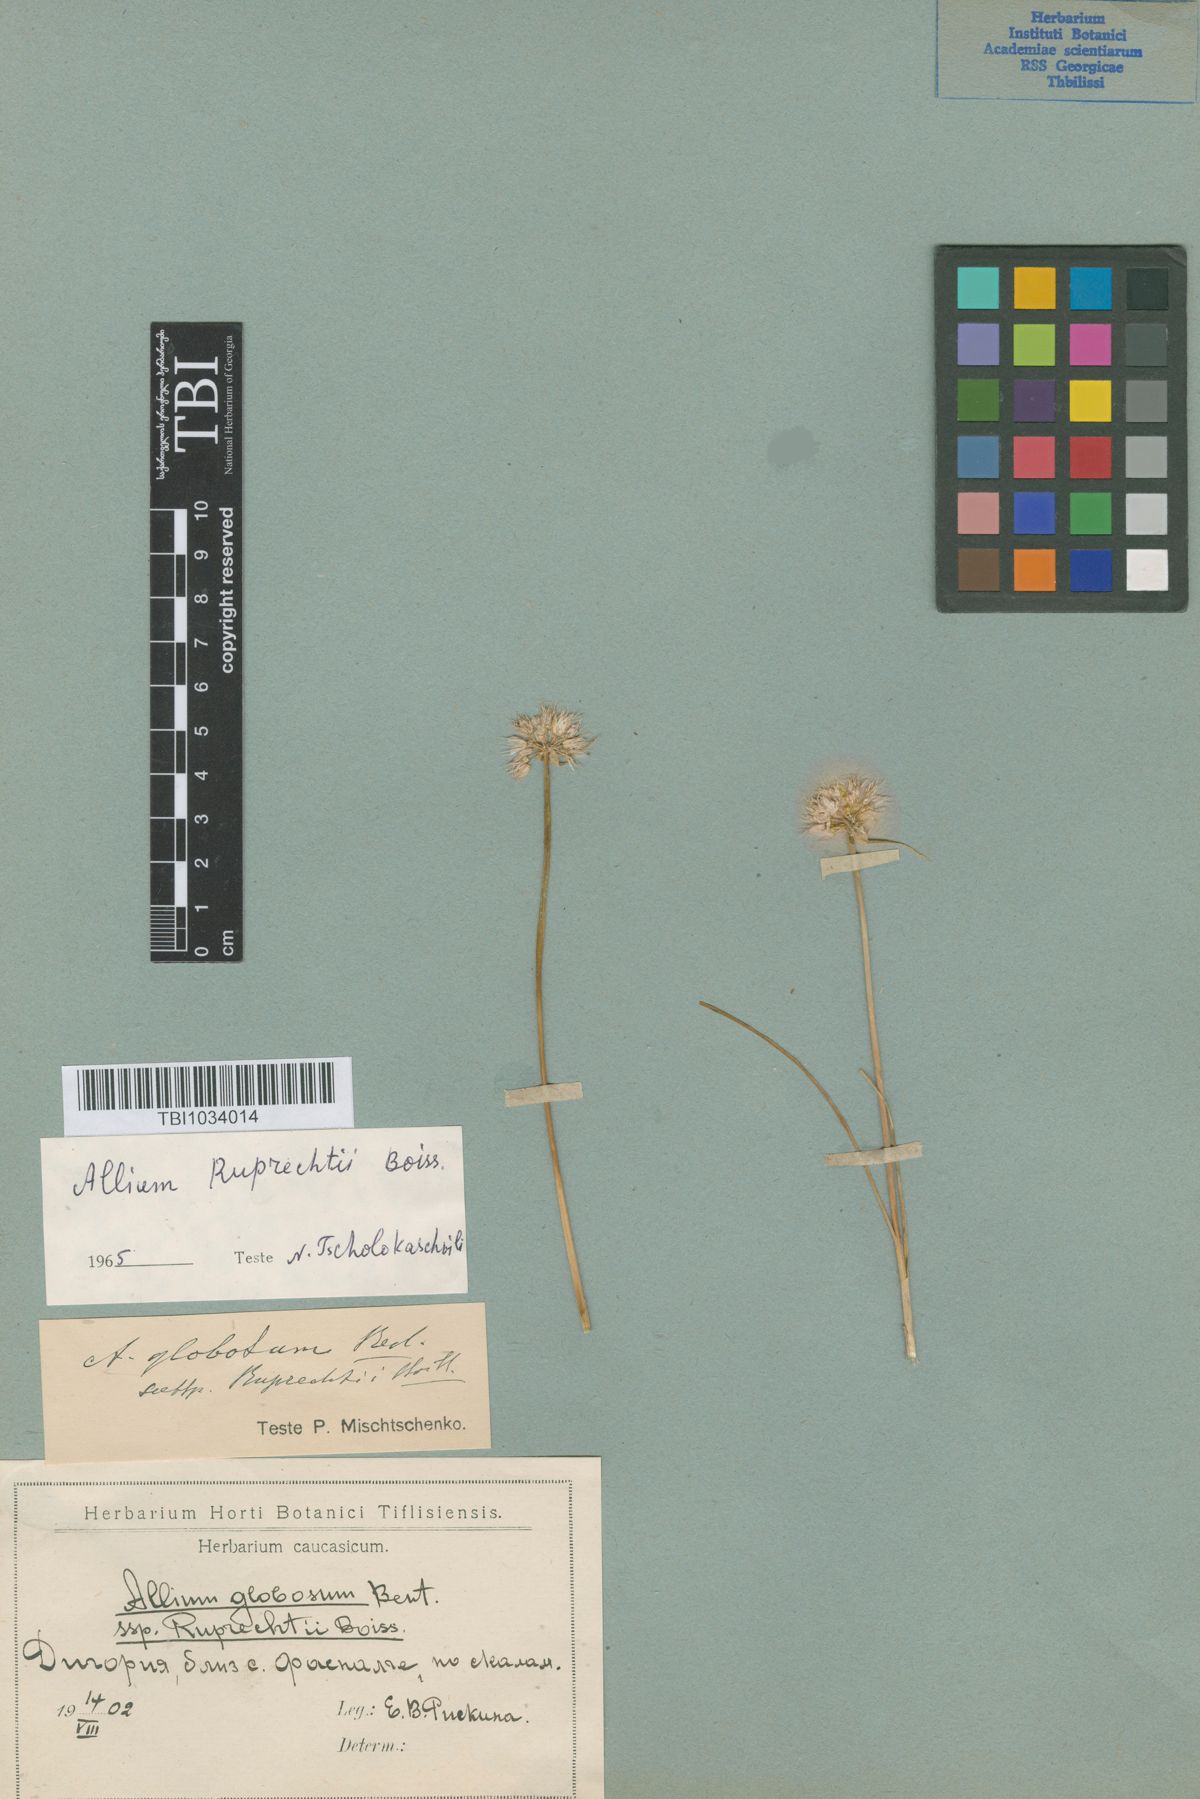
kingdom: Plantae
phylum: Tracheophyta
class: Liliopsida
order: Asparagales
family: Amaryllidaceae
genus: Allium
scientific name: Allium saxatile
